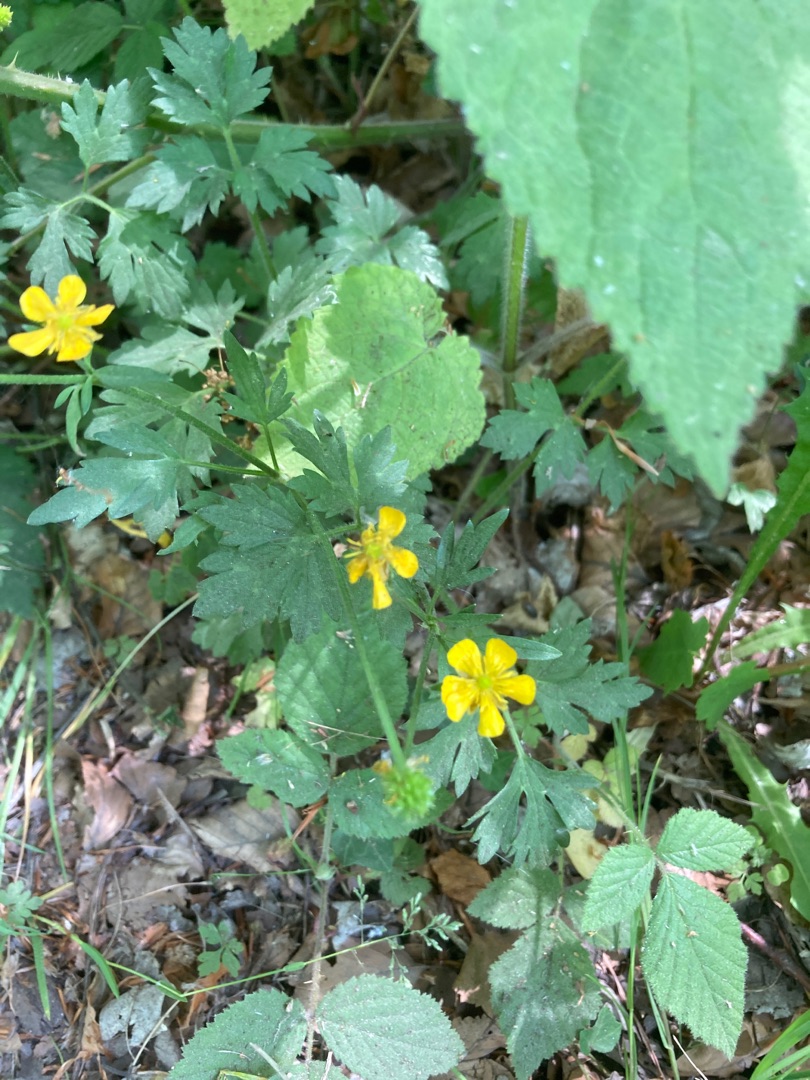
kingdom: Plantae
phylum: Tracheophyta
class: Magnoliopsida
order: Ranunculales
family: Ranunculaceae
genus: Ranunculus
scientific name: Ranunculus repens
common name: Lav ranunkel
